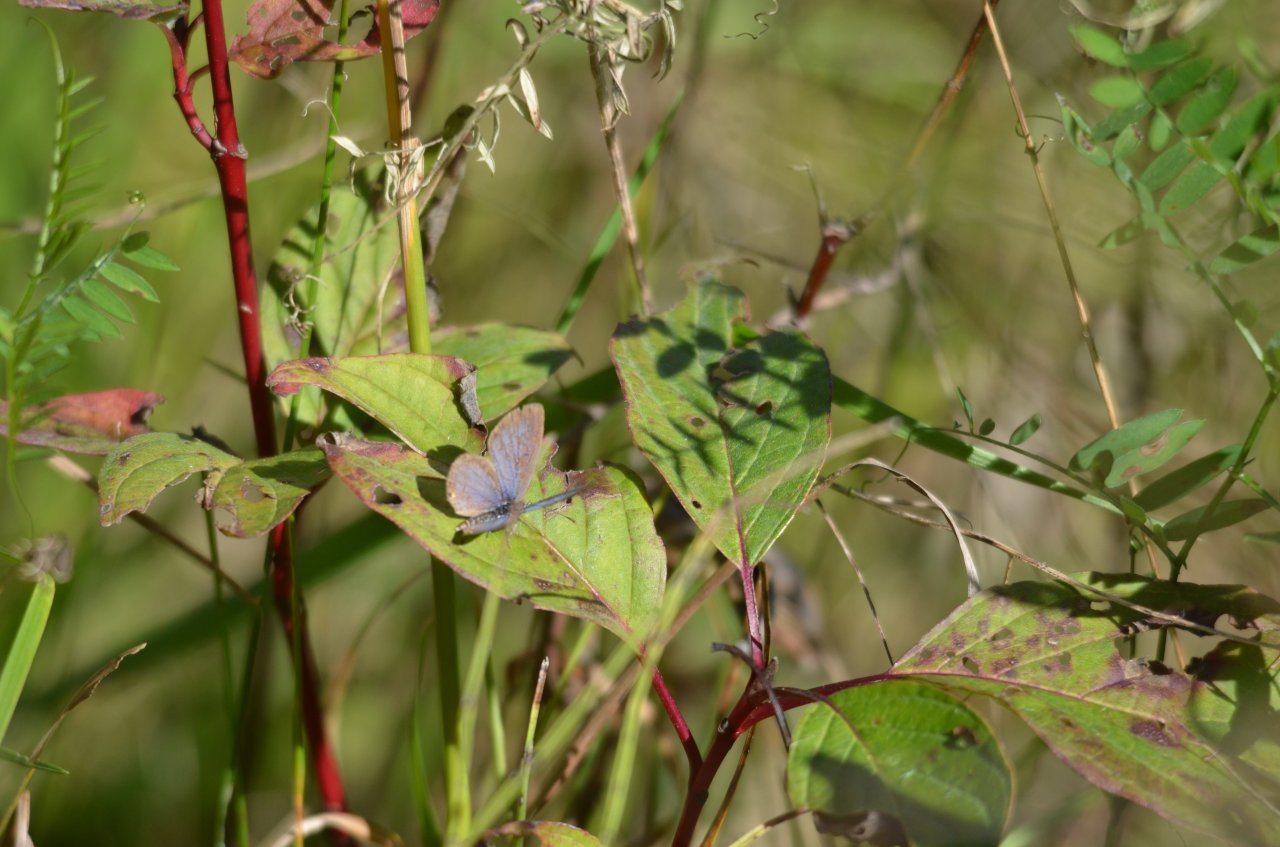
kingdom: Animalia
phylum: Arthropoda
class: Insecta
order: Lepidoptera
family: Lycaenidae
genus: Elkalyce
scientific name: Elkalyce comyntas
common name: Eastern Tailed-Blue
